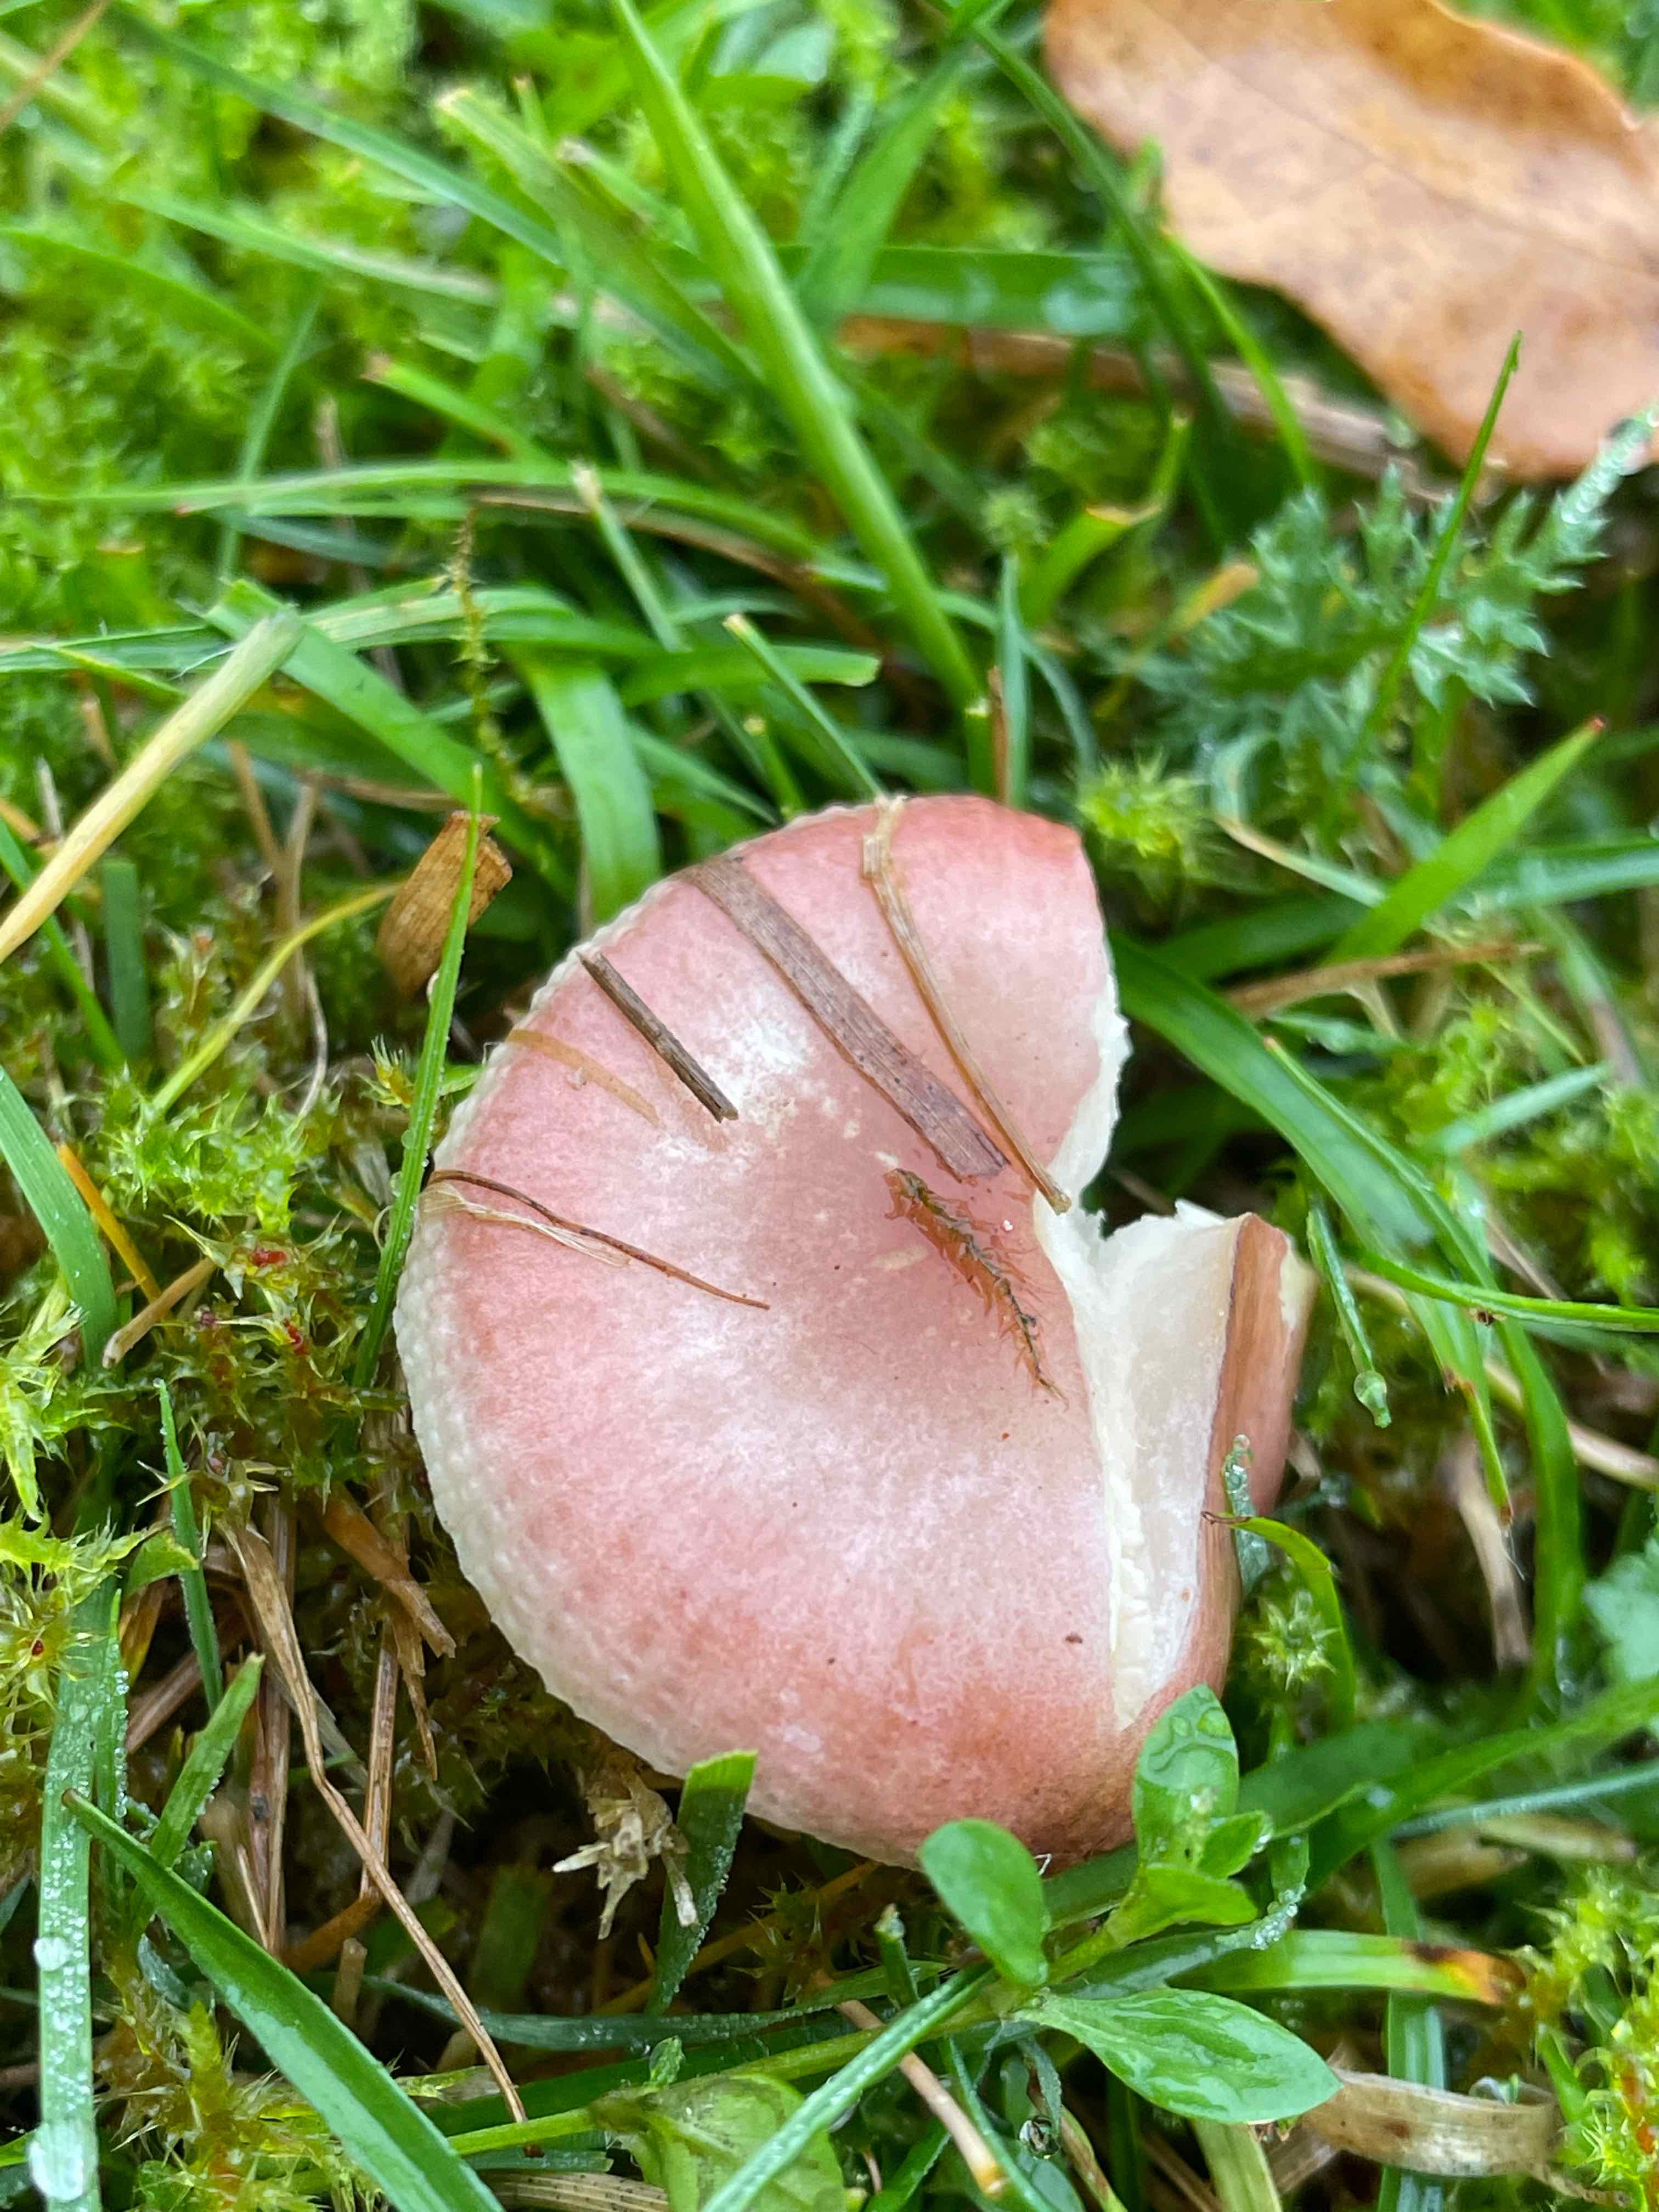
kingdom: Fungi
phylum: Basidiomycota
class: Agaricomycetes
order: Russulales
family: Russulaceae
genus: Russula
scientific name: Russula odorata
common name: duft-skørhat
